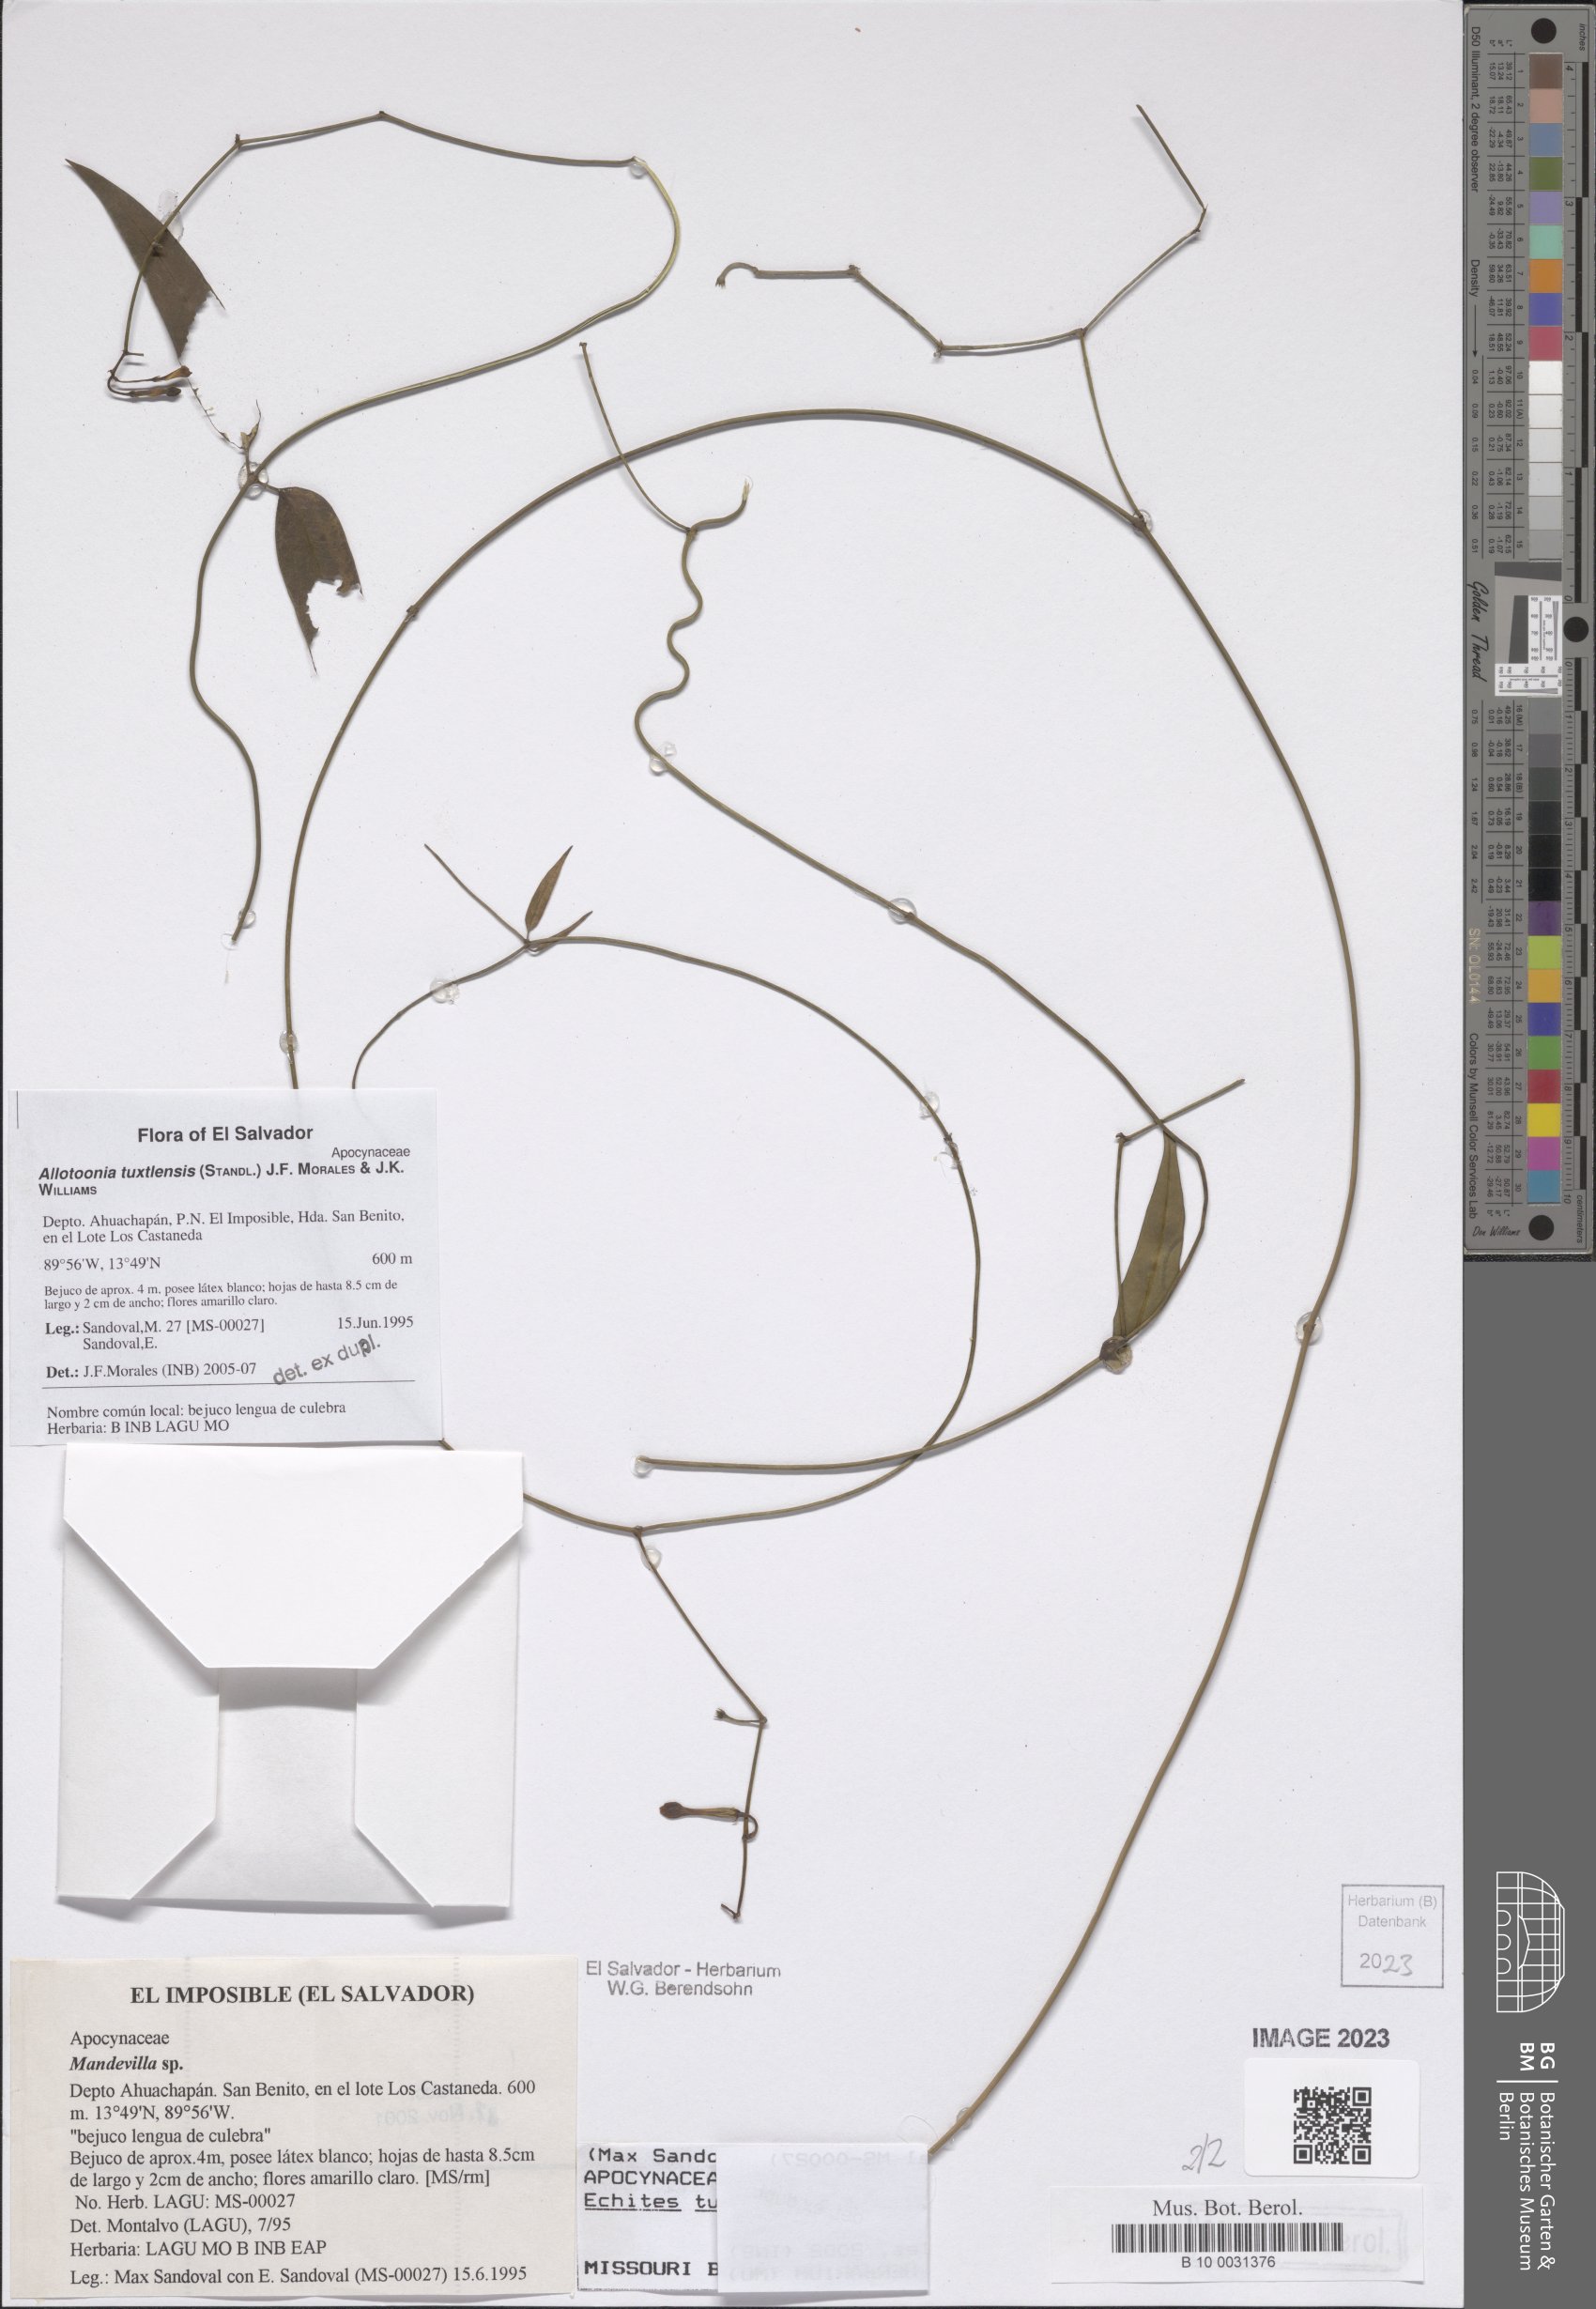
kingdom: Plantae
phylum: Tracheophyta
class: Magnoliopsida
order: Gentianales
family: Apocynaceae
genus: Echites
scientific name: Echites tuxtlensis
